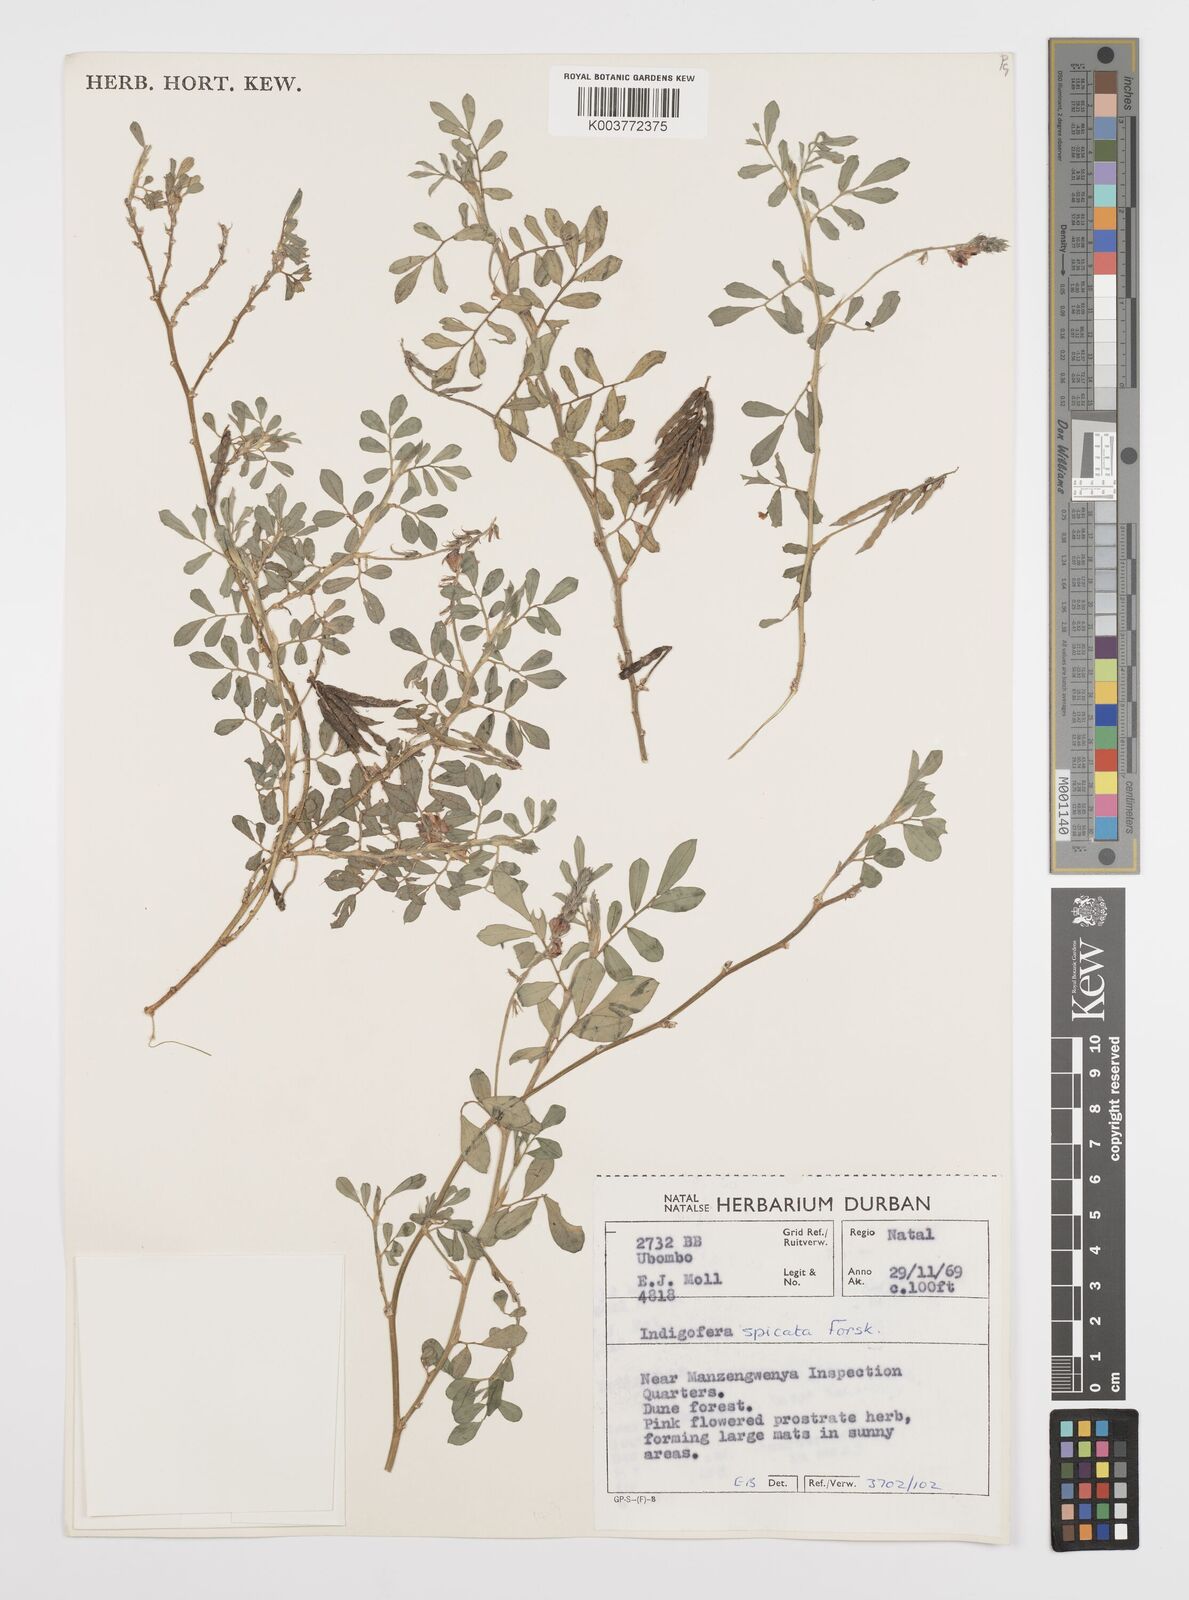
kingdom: Plantae
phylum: Tracheophyta
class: Magnoliopsida
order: Fabales
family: Fabaceae
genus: Indigofera
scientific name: Indigofera hendecaphylla
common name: Trailing indigo
